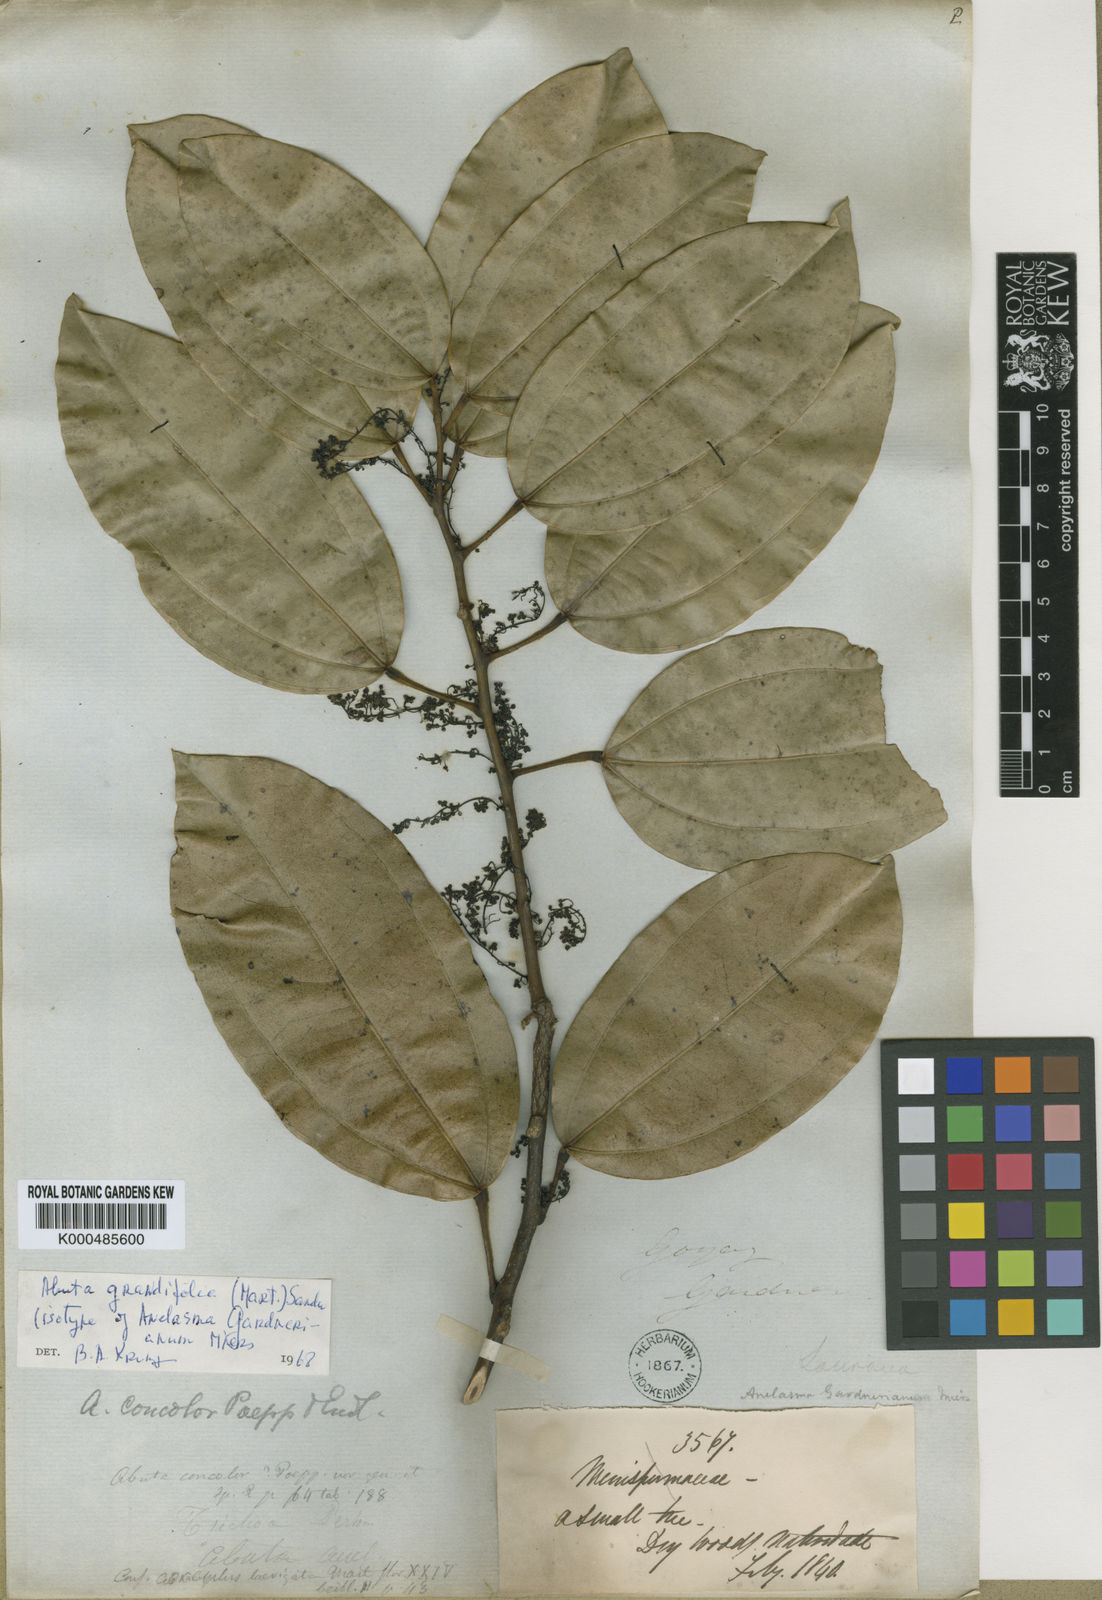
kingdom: Plantae
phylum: Tracheophyta
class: Magnoliopsida
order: Ranunculales
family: Menispermaceae
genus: Abuta
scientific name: Abuta grandifolia
